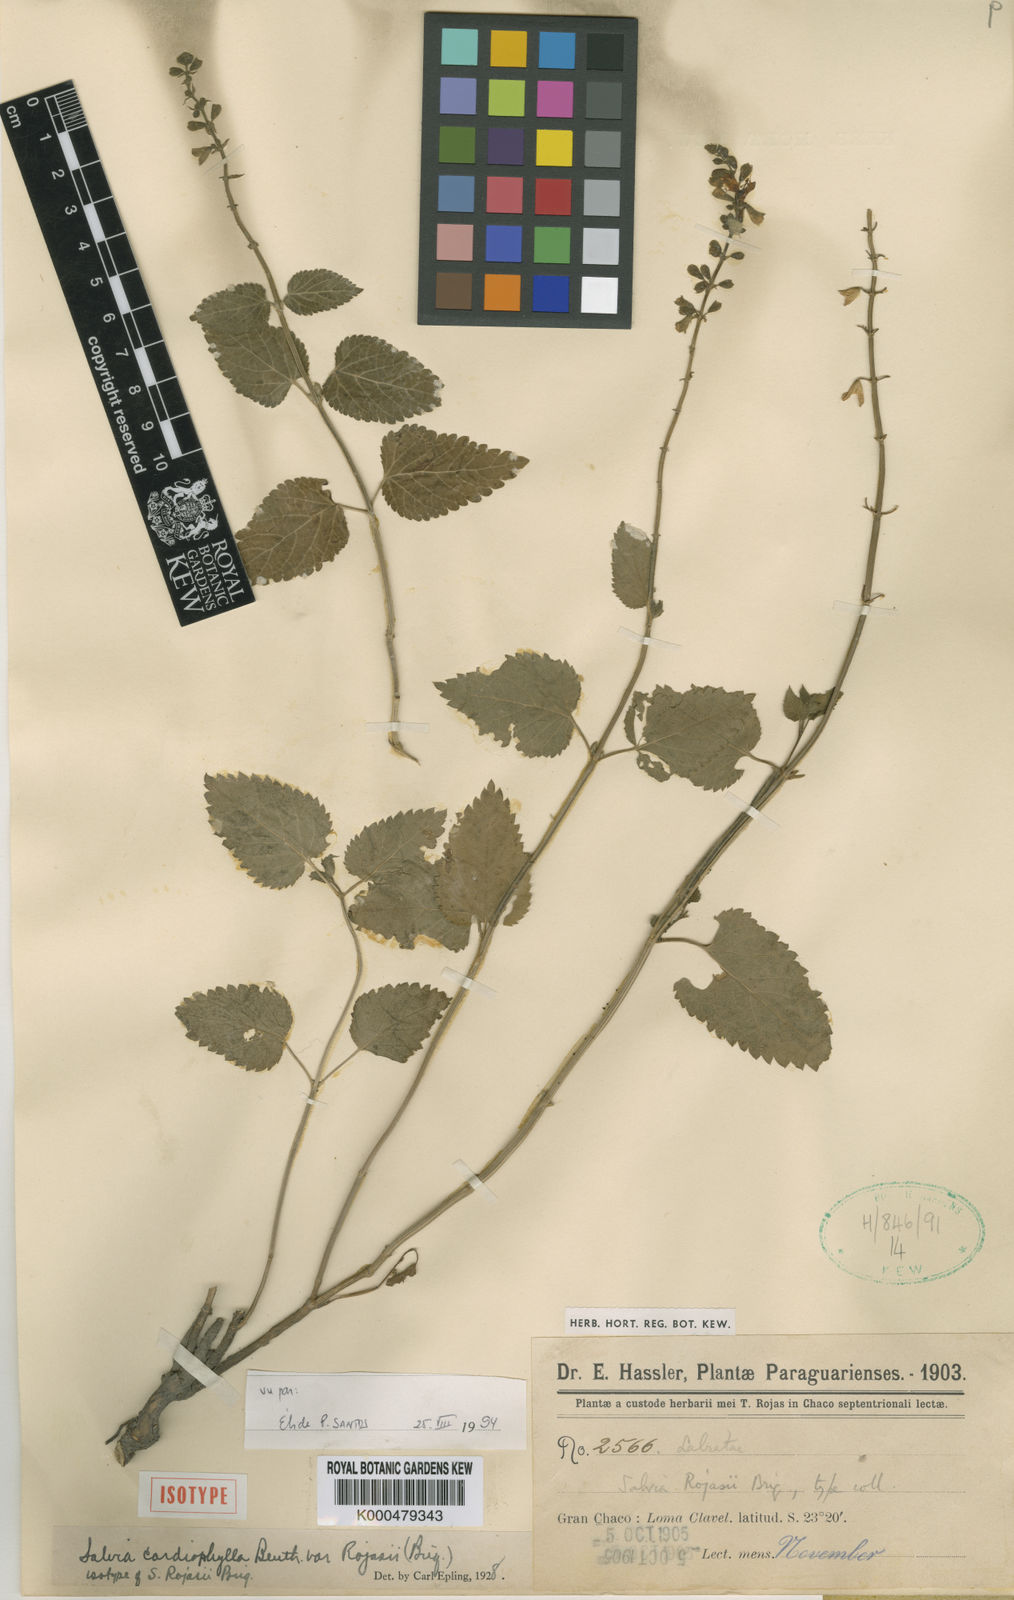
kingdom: Plantae
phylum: Tracheophyta
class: Magnoliopsida
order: Lamiales
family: Lamiaceae
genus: Salvia
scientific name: Salvia cardiophylla
